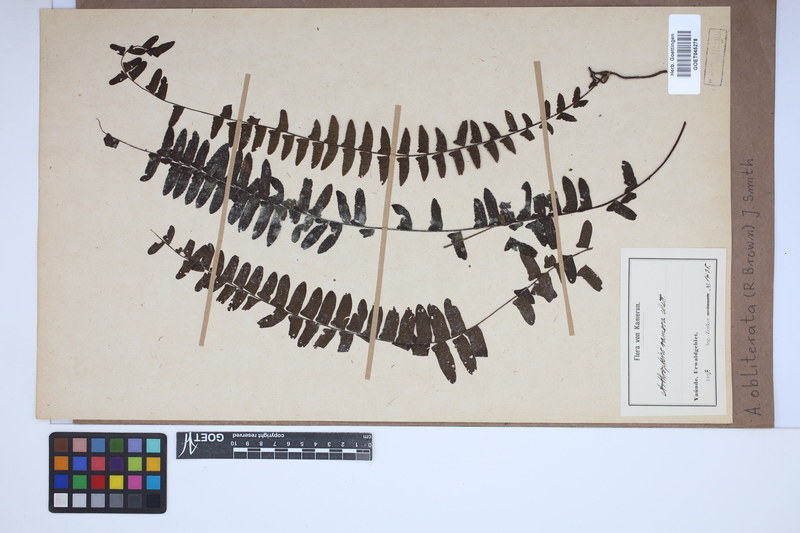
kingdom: Plantae
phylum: Tracheophyta
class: Polypodiopsida
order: Polypodiales
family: Nephrolepidaceae
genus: Nephrolepis
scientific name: Nephrolepis obliterata
